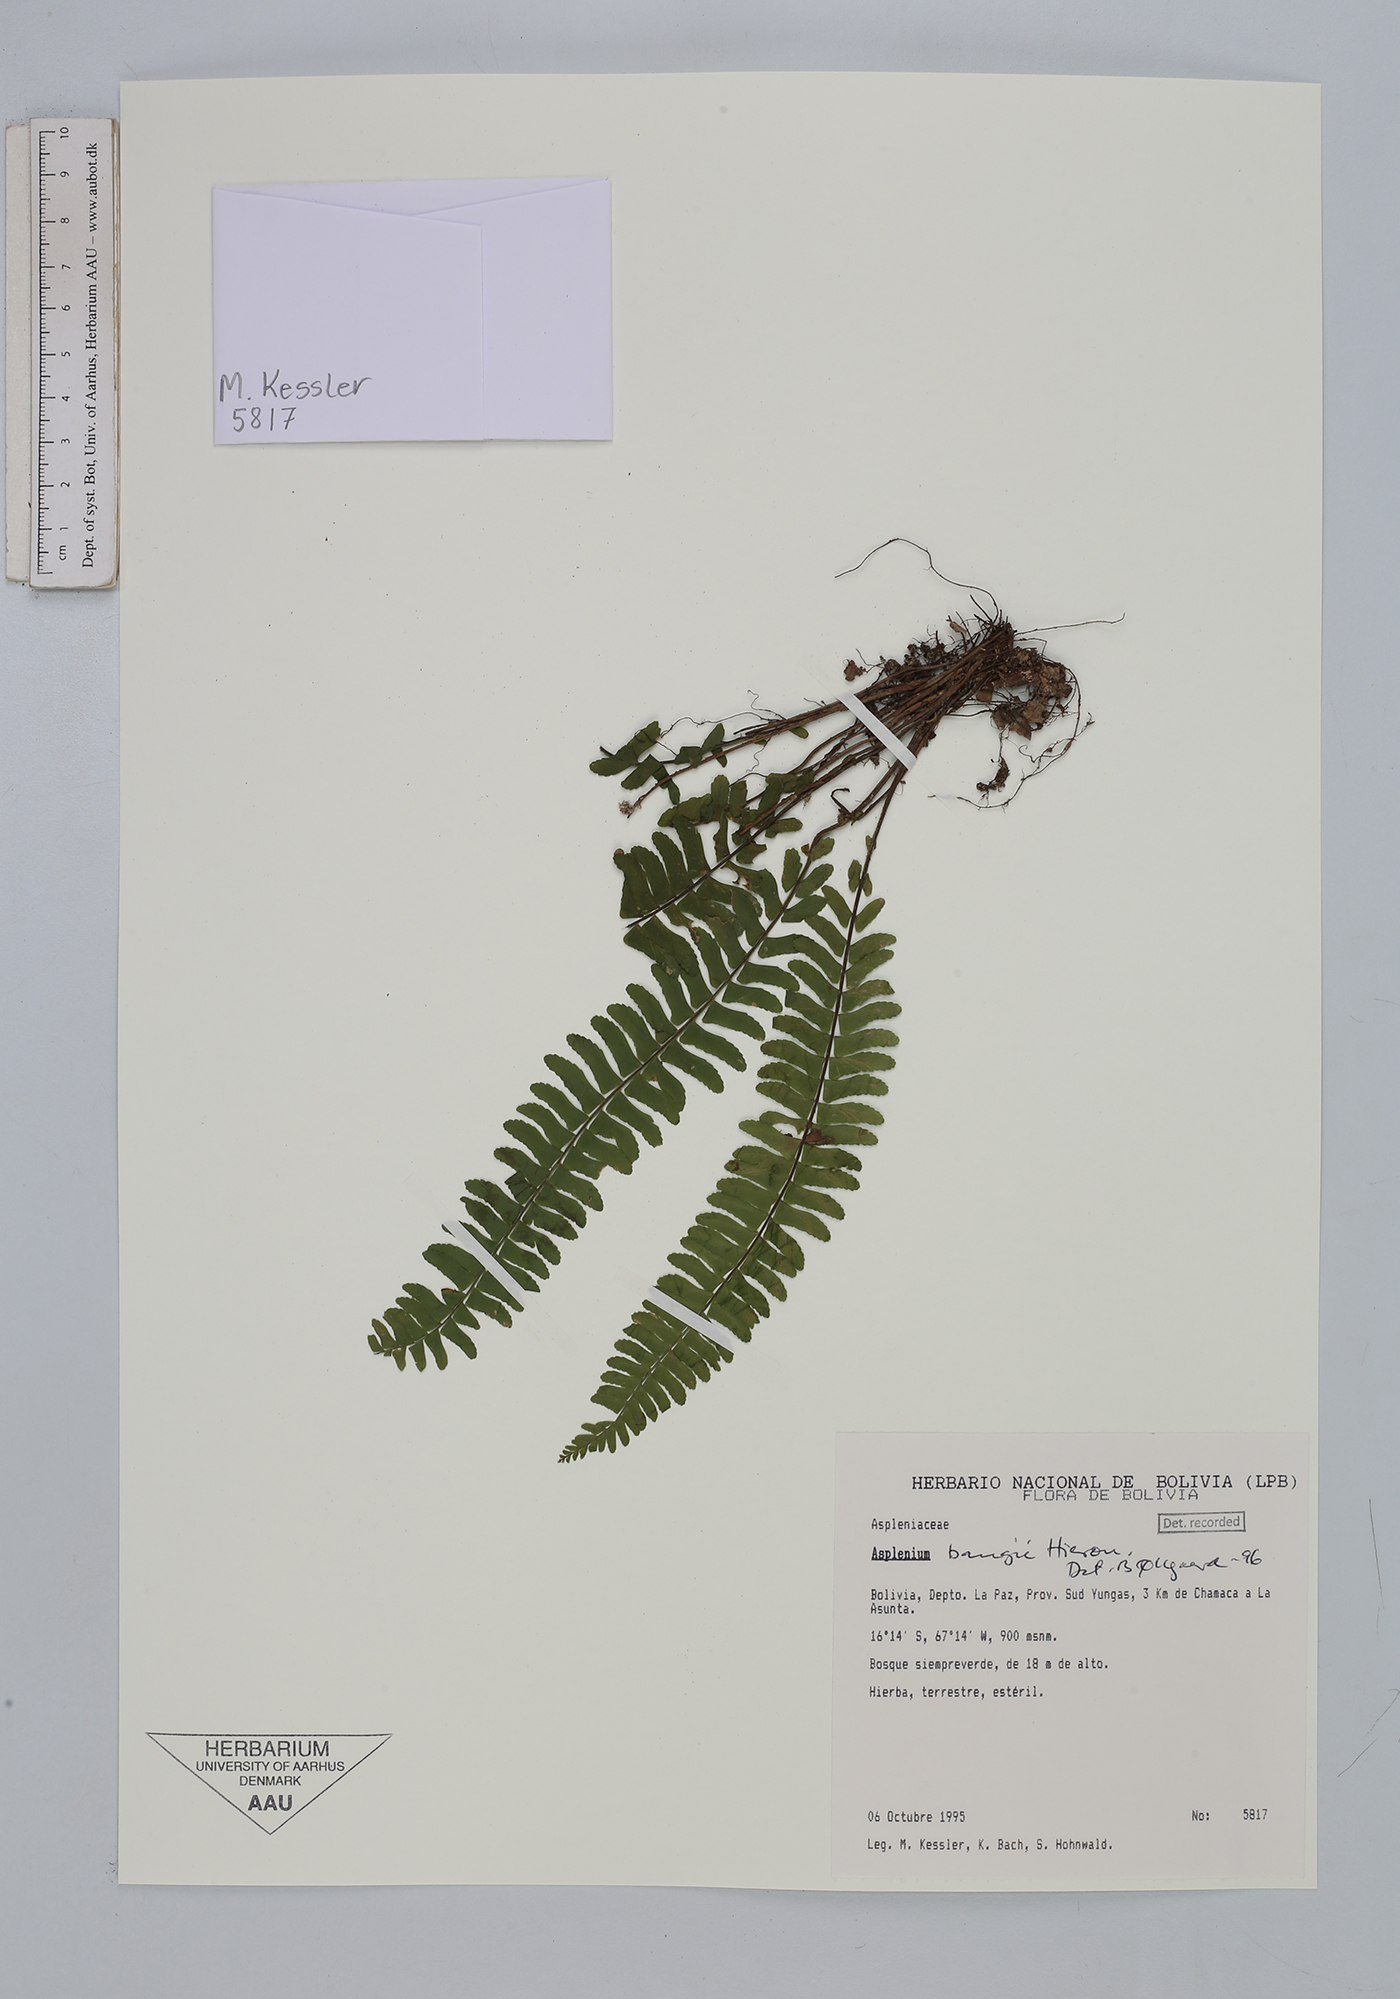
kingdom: Plantae
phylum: Tracheophyta
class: Polypodiopsida
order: Polypodiales
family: Aspleniaceae
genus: Asplenium
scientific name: Asplenium bangii
